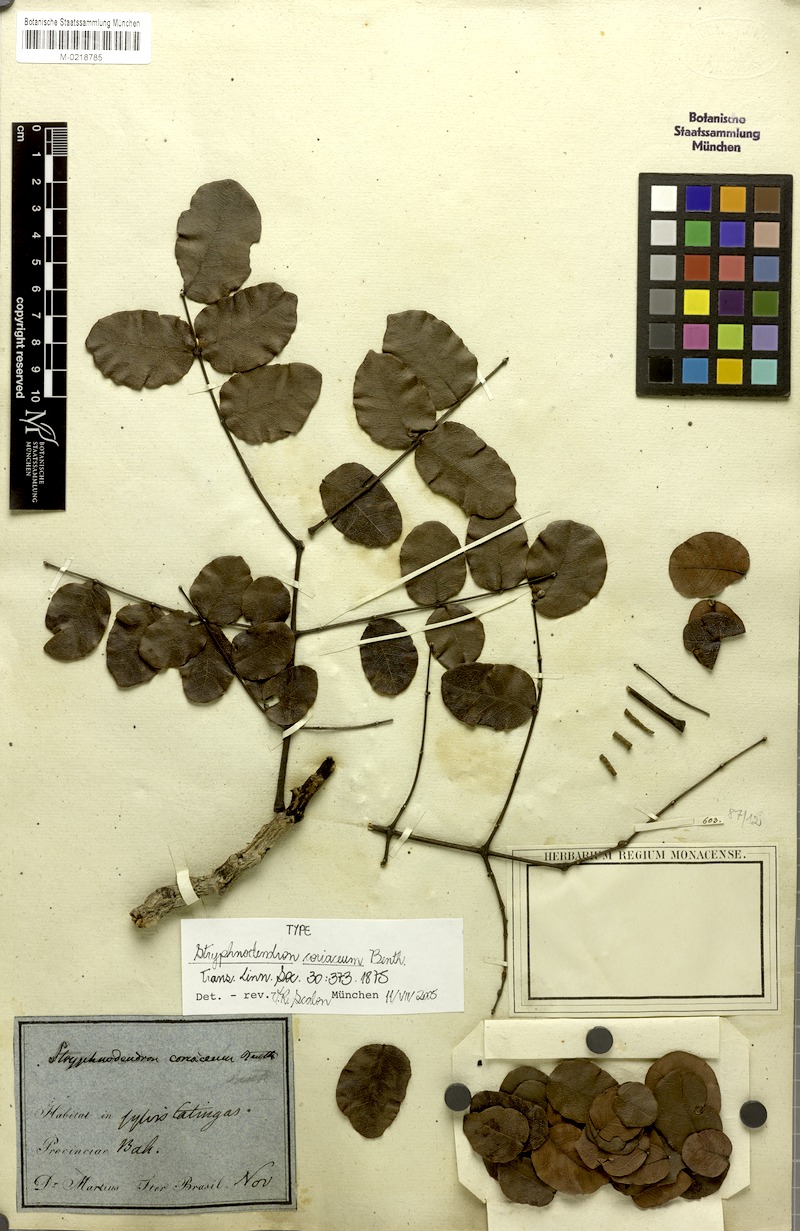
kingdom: Plantae
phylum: Tracheophyta
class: Magnoliopsida
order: Fabales
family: Fabaceae
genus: Stryphnodendron
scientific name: Stryphnodendron coriaceum
